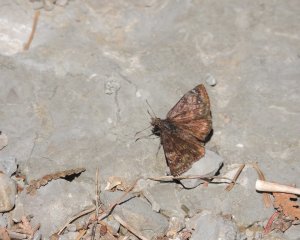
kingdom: Animalia
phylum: Arthropoda
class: Insecta
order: Lepidoptera
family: Hesperiidae
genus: Gesta
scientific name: Gesta
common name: Columbine Duskywing
